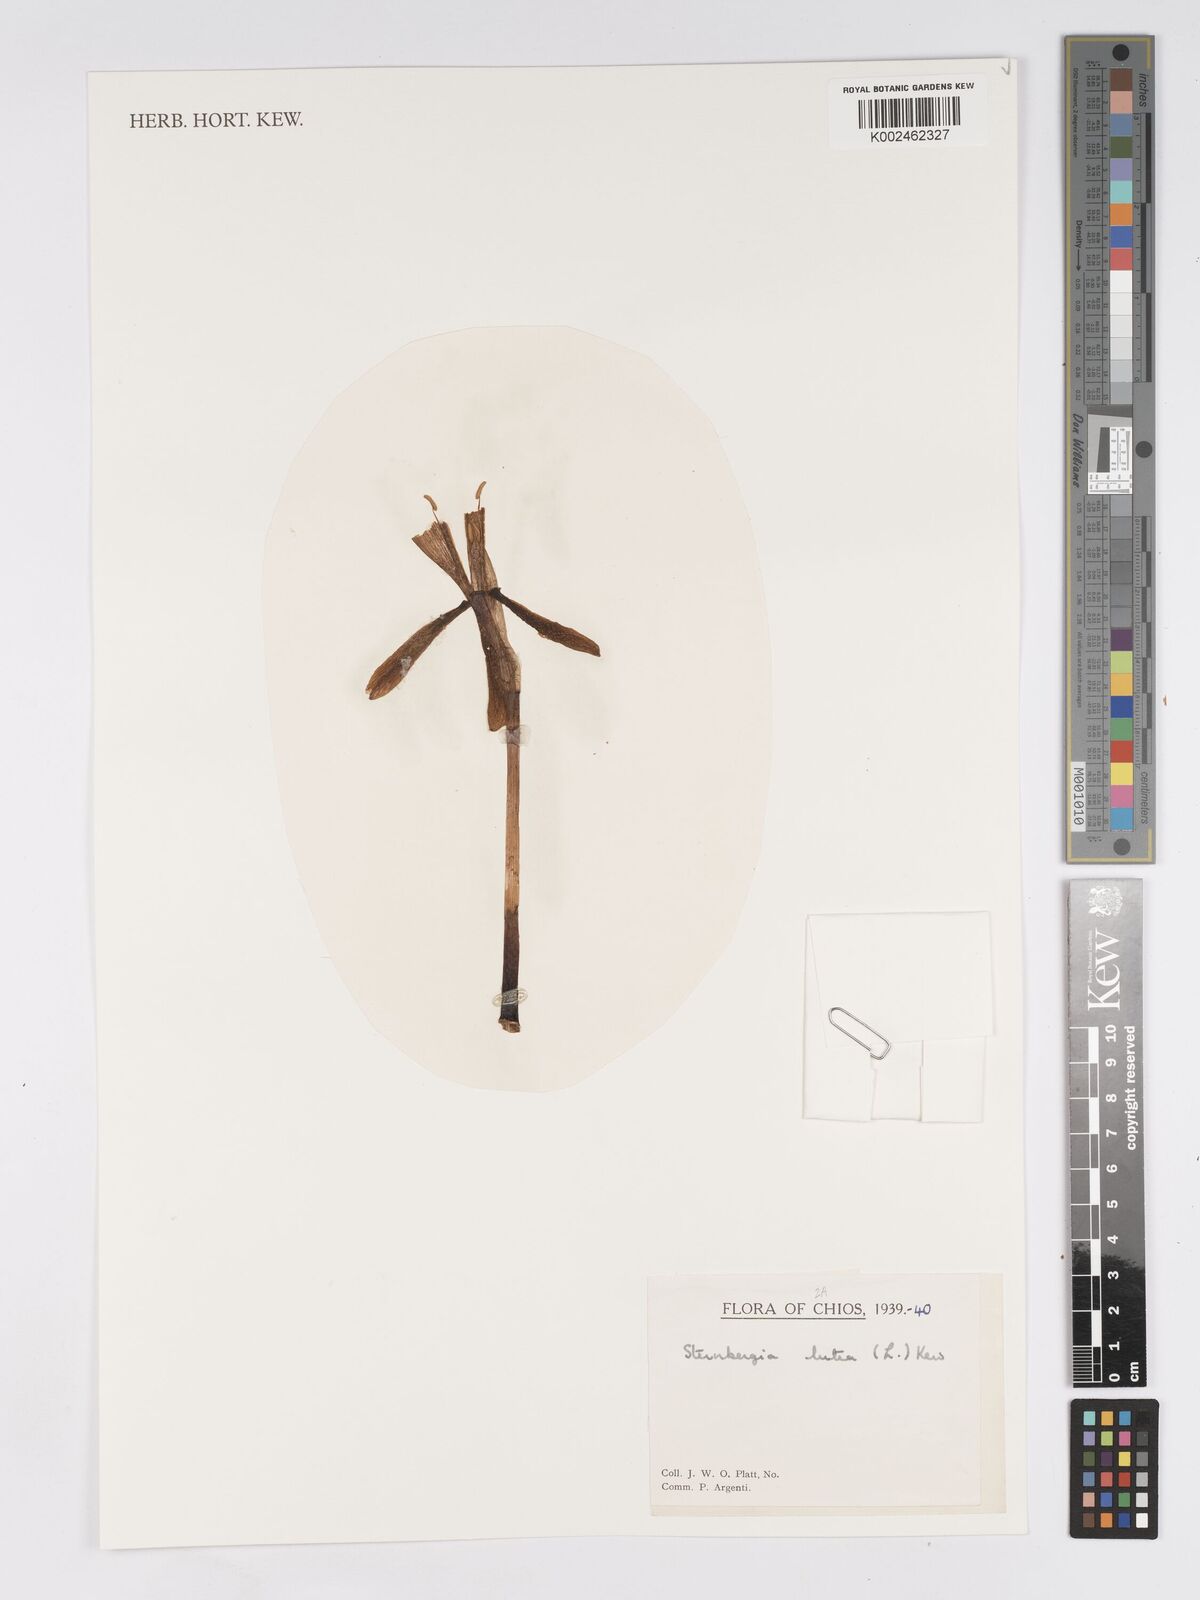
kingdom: Plantae
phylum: Tracheophyta
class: Liliopsida
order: Asparagales
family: Amaryllidaceae
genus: Sternbergia
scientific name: Sternbergia lutea
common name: Winter daffodil
